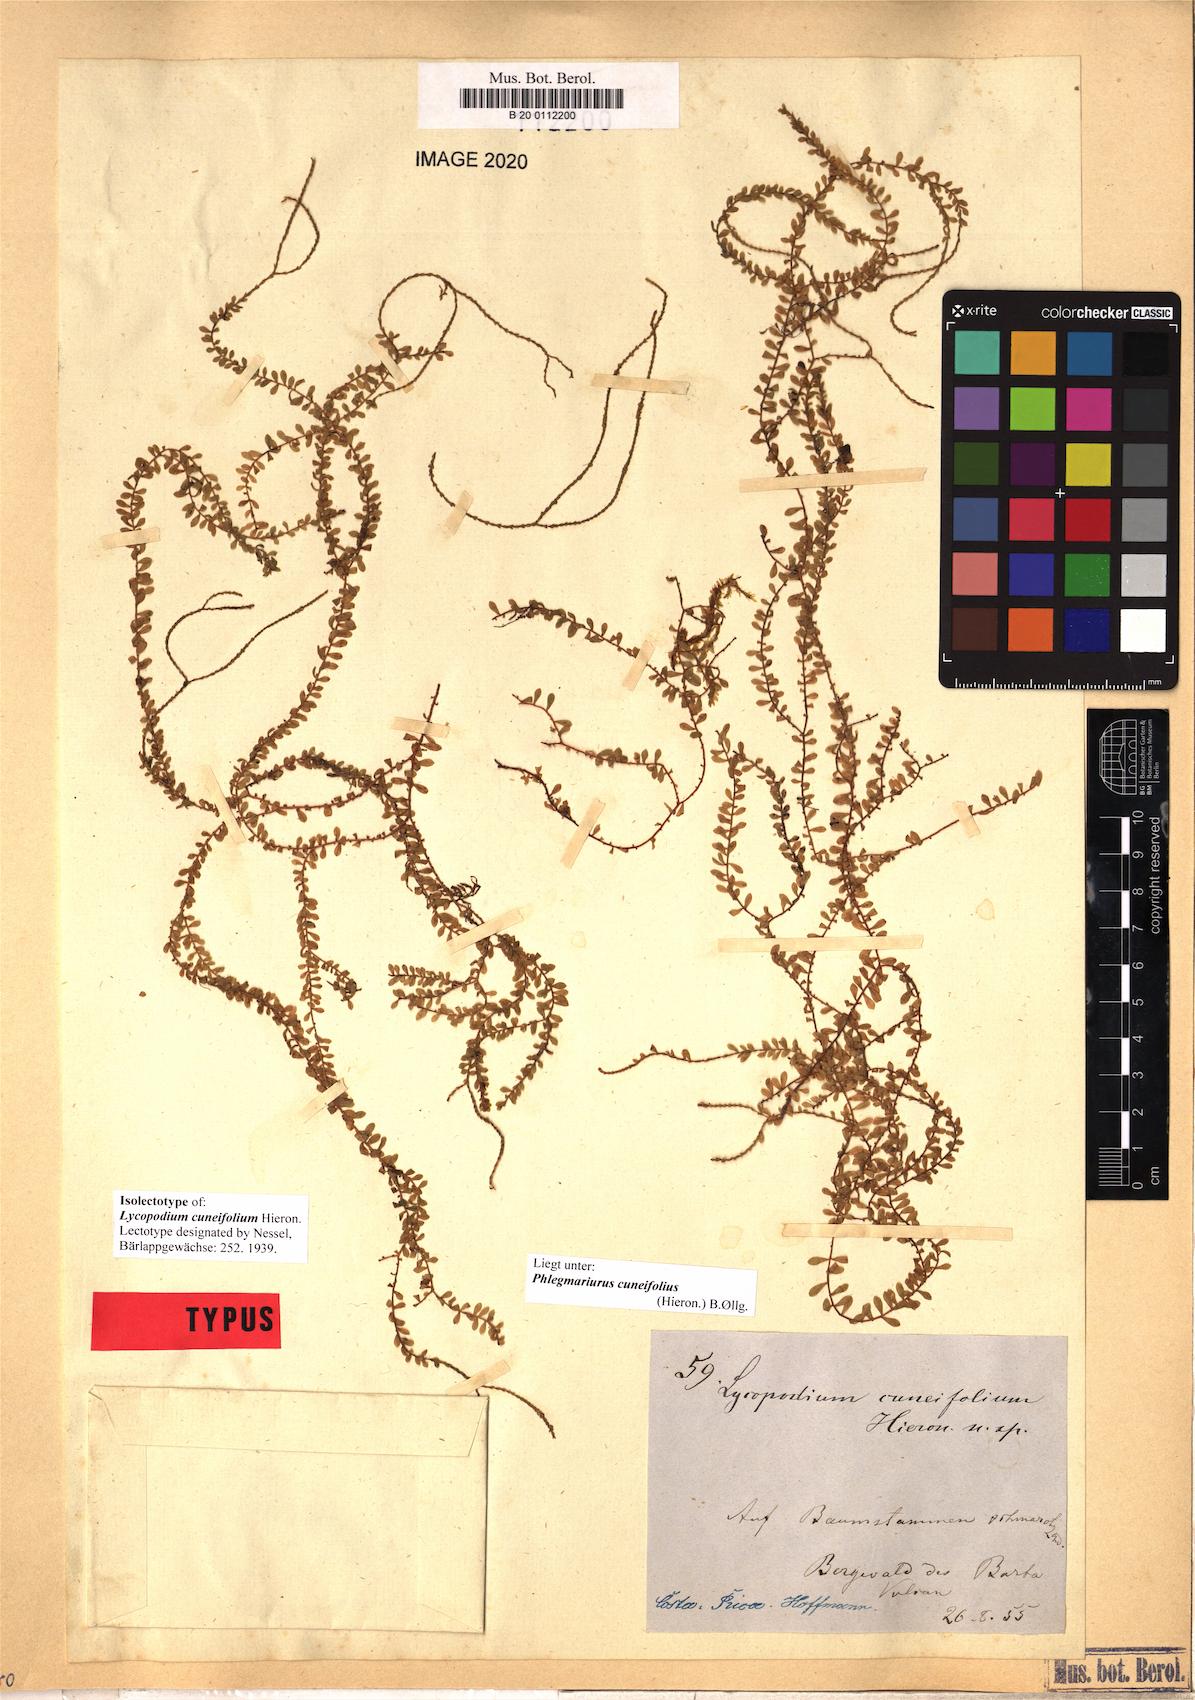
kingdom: Plantae
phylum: Tracheophyta
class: Lycopodiopsida
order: Lycopodiales
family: Lycopodiaceae
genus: Phlegmariurus
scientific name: Phlegmariurus cuneifolius
